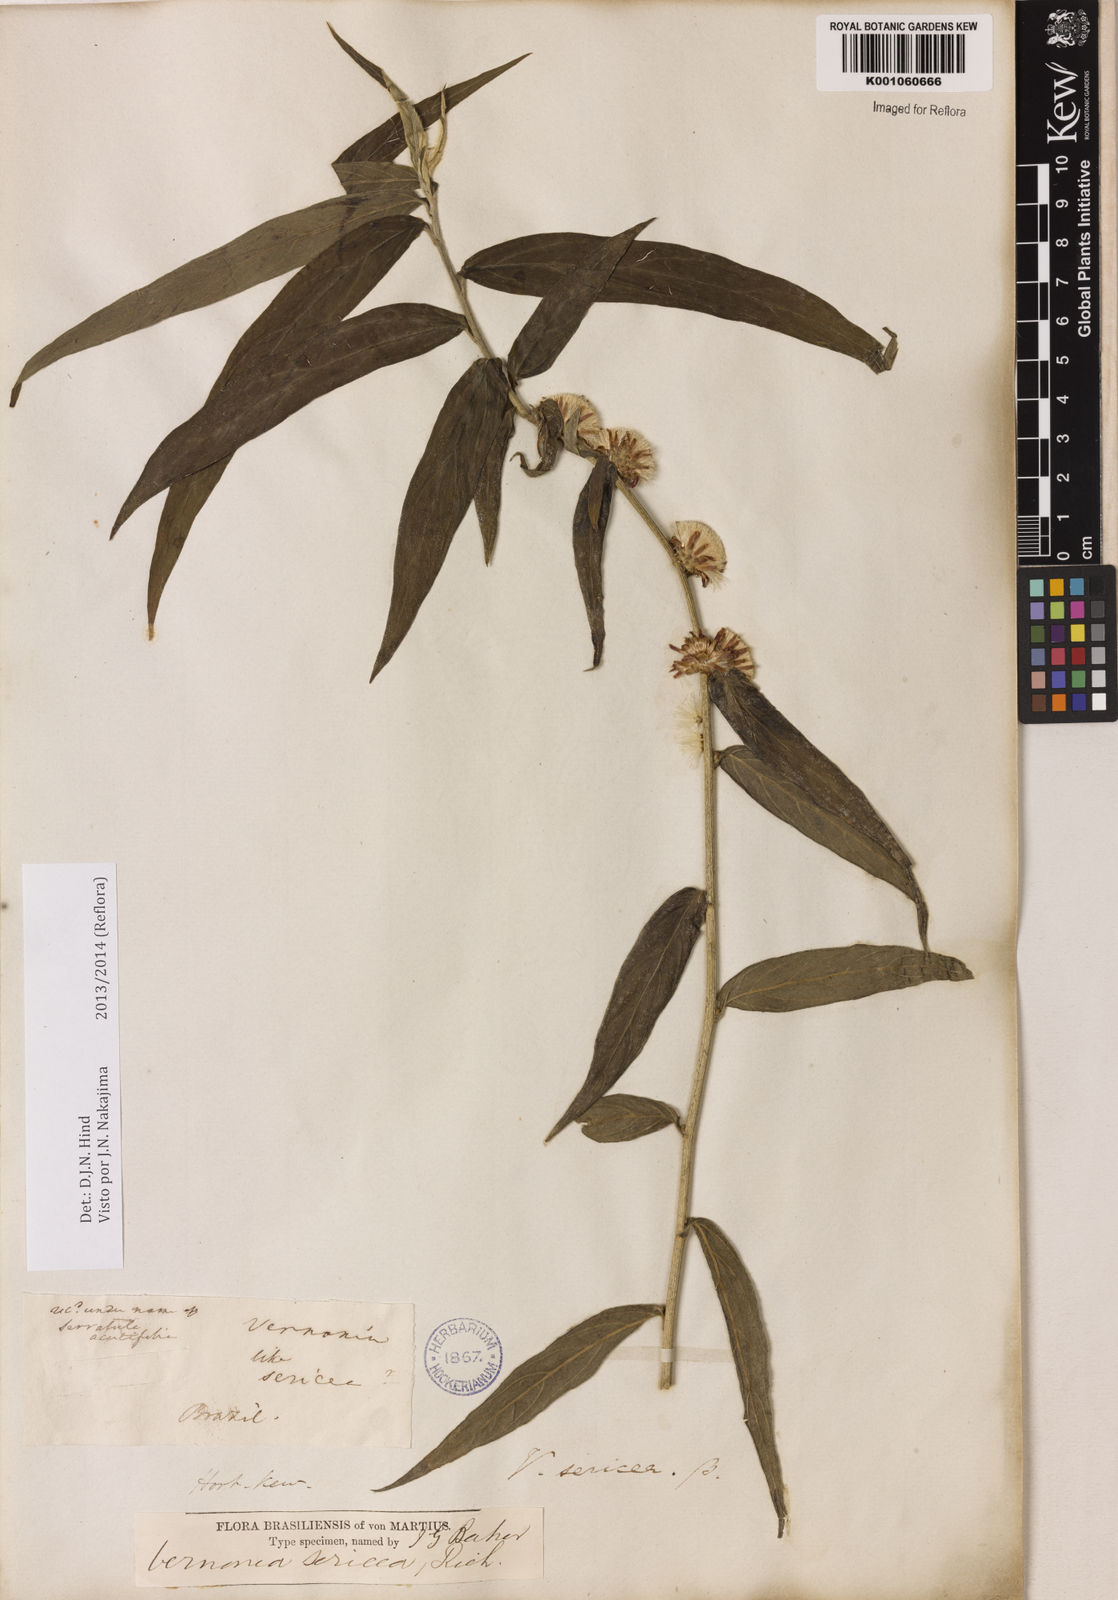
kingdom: Plantae
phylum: Tracheophyta
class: Magnoliopsida
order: Asterales
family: Asteraceae
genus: Lepidaploa
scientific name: Lepidaploa sericea
